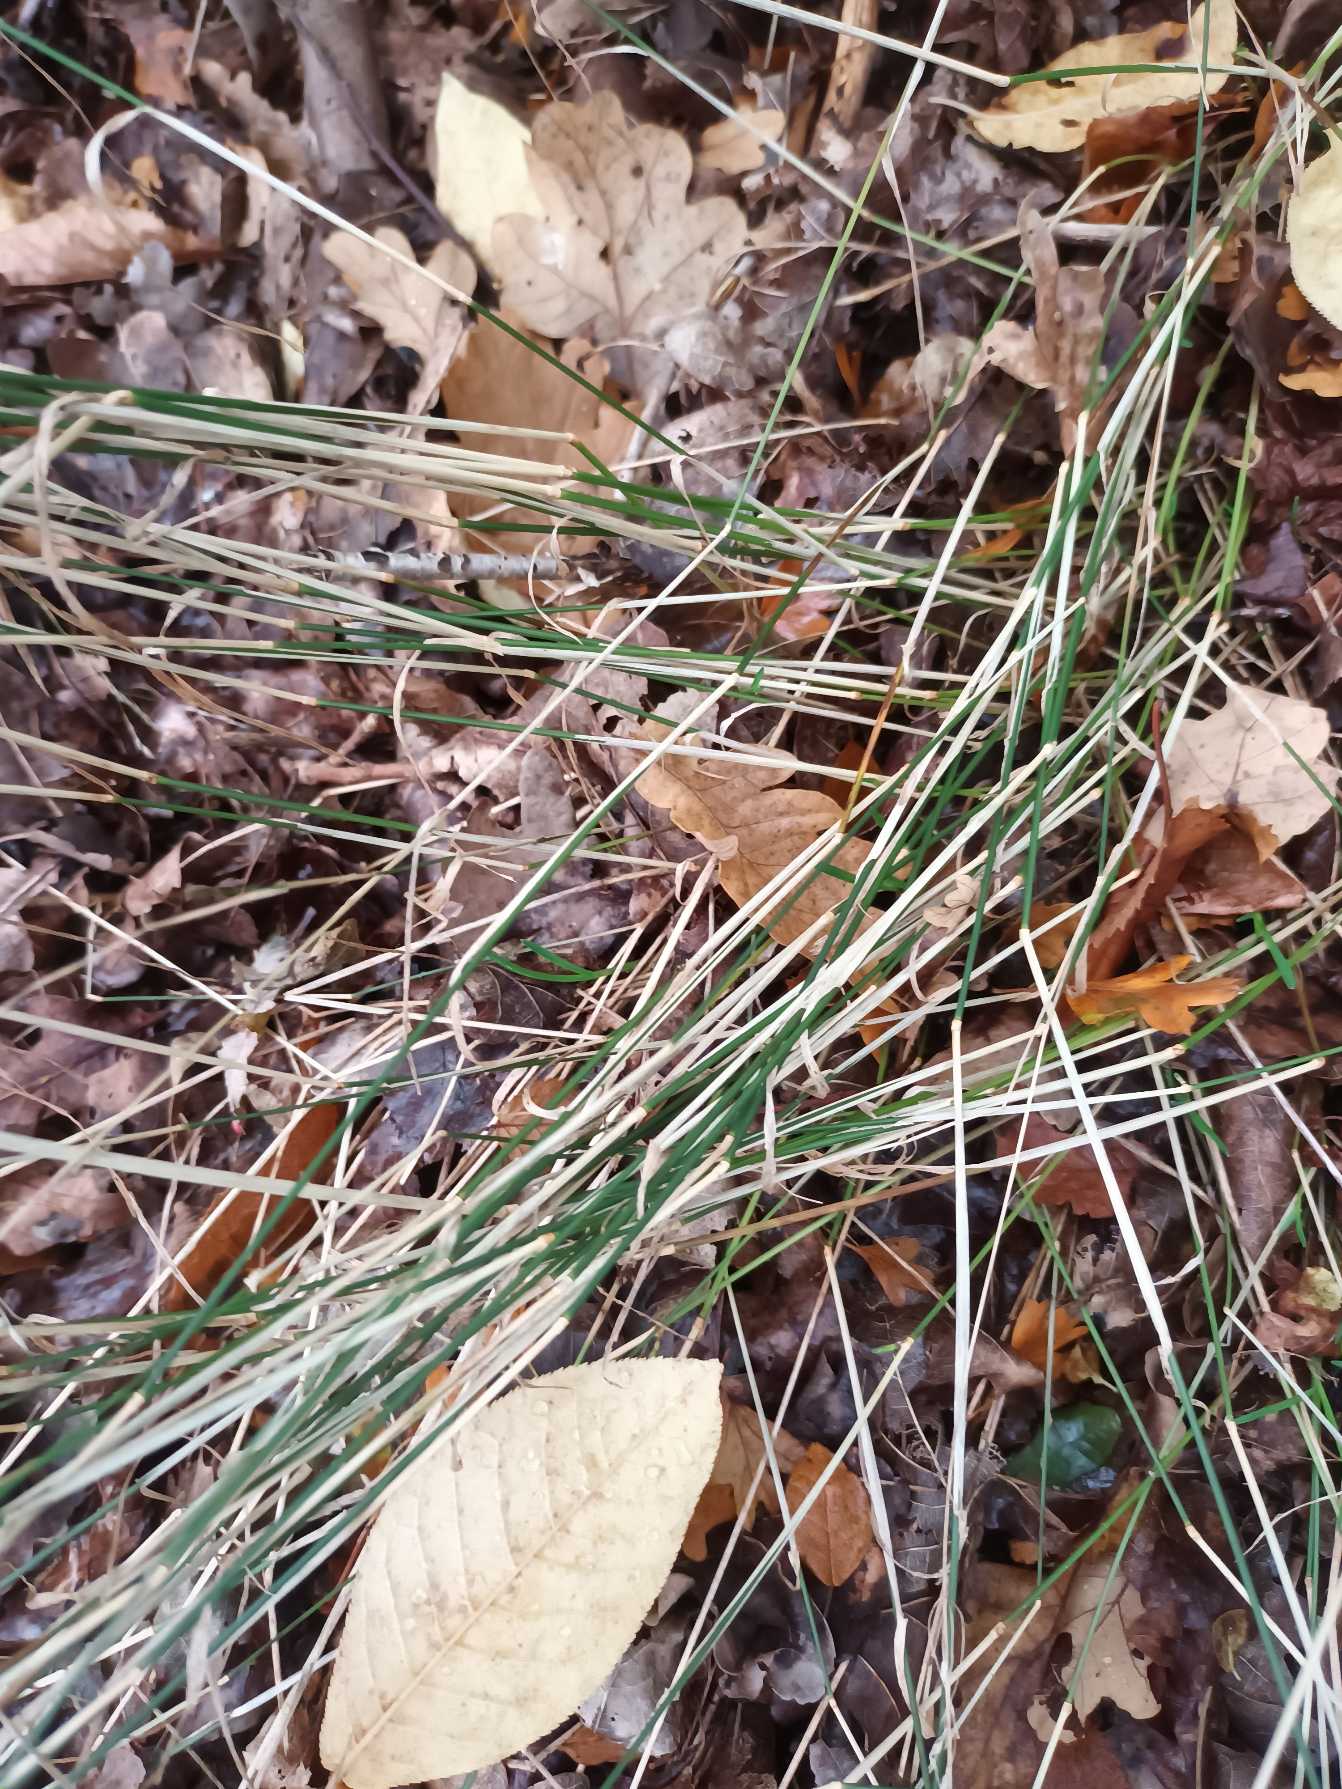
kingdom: Plantae
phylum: Tracheophyta
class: Liliopsida
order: Poales
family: Poaceae
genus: Poa
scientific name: Poa nemoralis
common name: Lund-rapgræs
